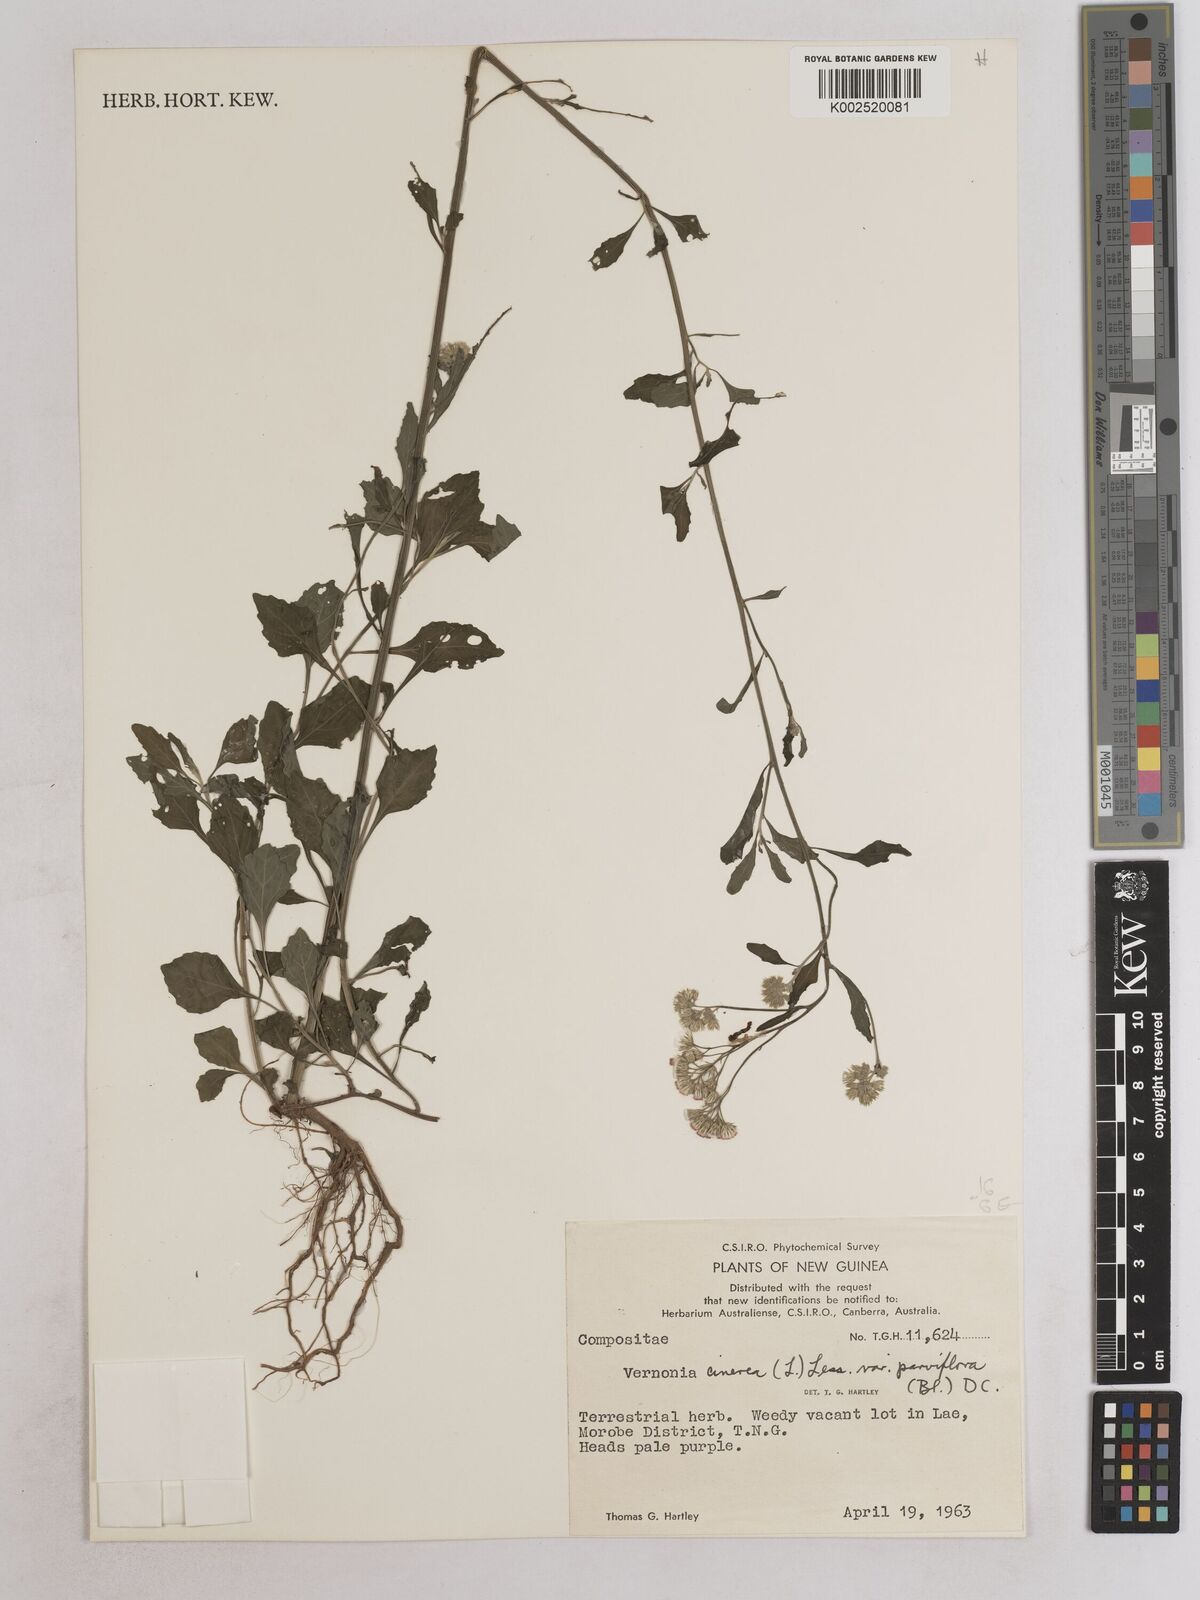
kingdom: Plantae
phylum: Tracheophyta
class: Magnoliopsida
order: Asterales
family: Asteraceae
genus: Cyanthillium
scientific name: Cyanthillium cinereum
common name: Little ironweed
